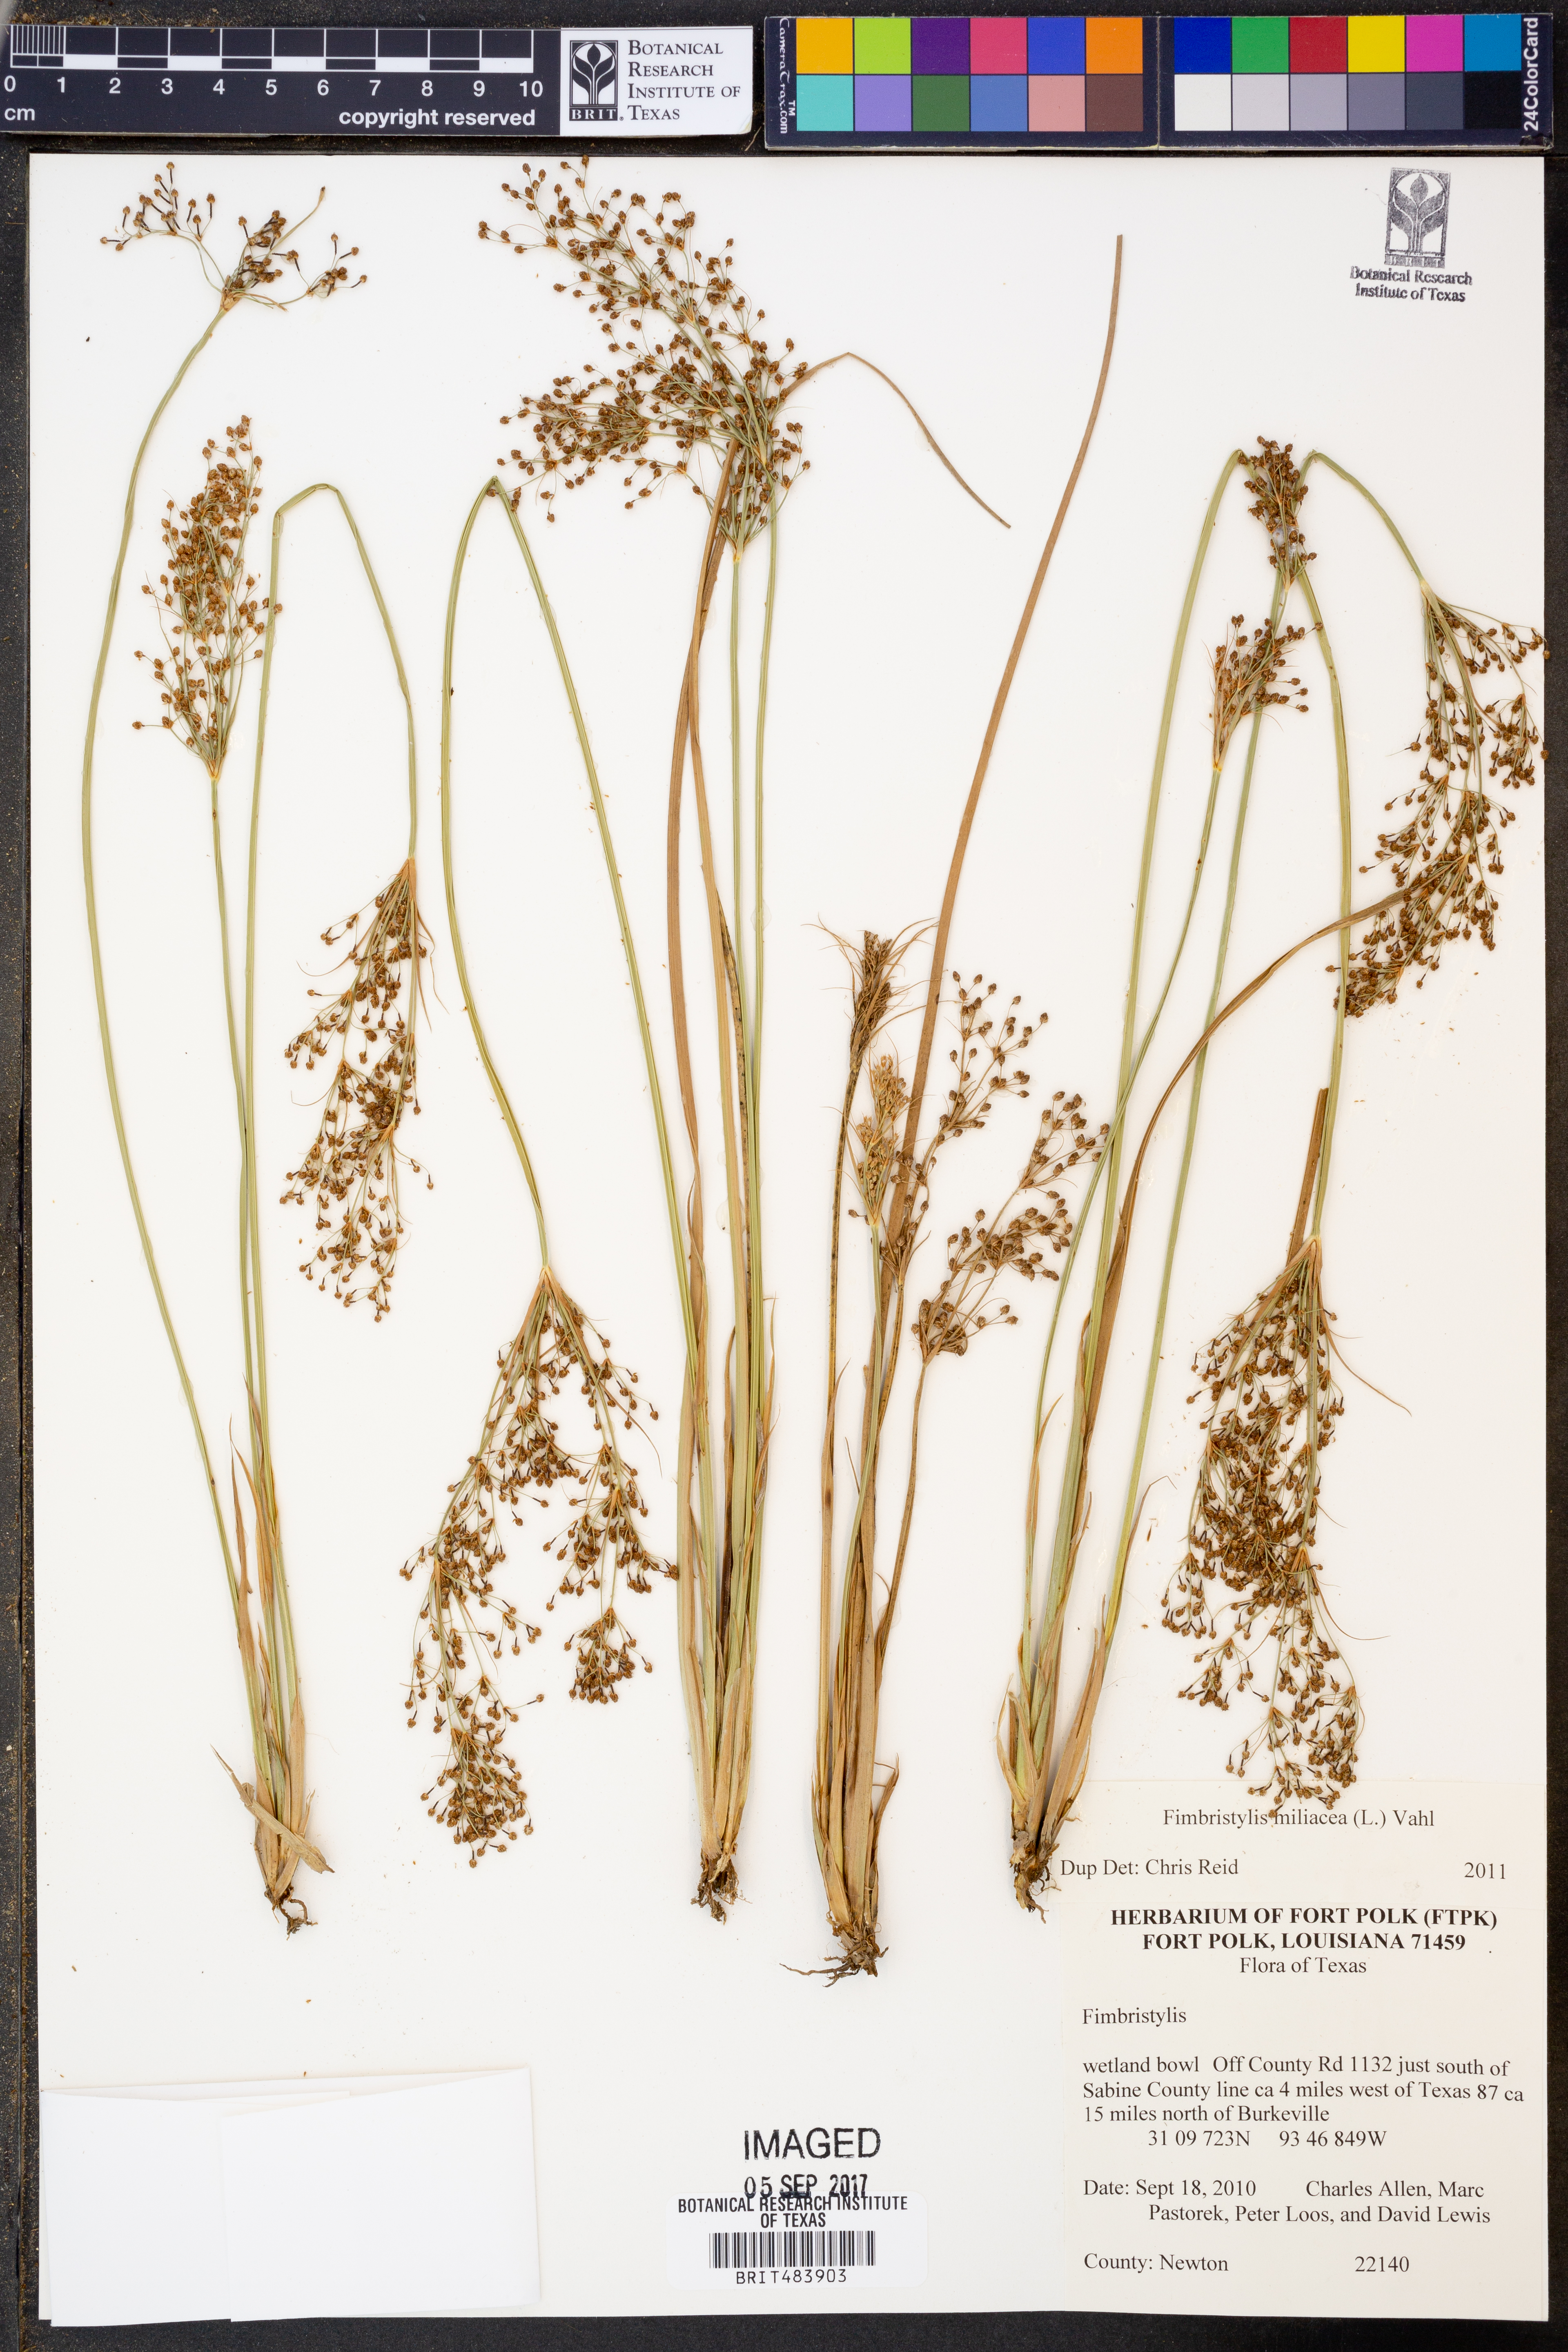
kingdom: Plantae
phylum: Tracheophyta
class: Liliopsida
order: Poales
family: Cyperaceae
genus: Fimbristylis
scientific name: Fimbristylis quinquangularis
